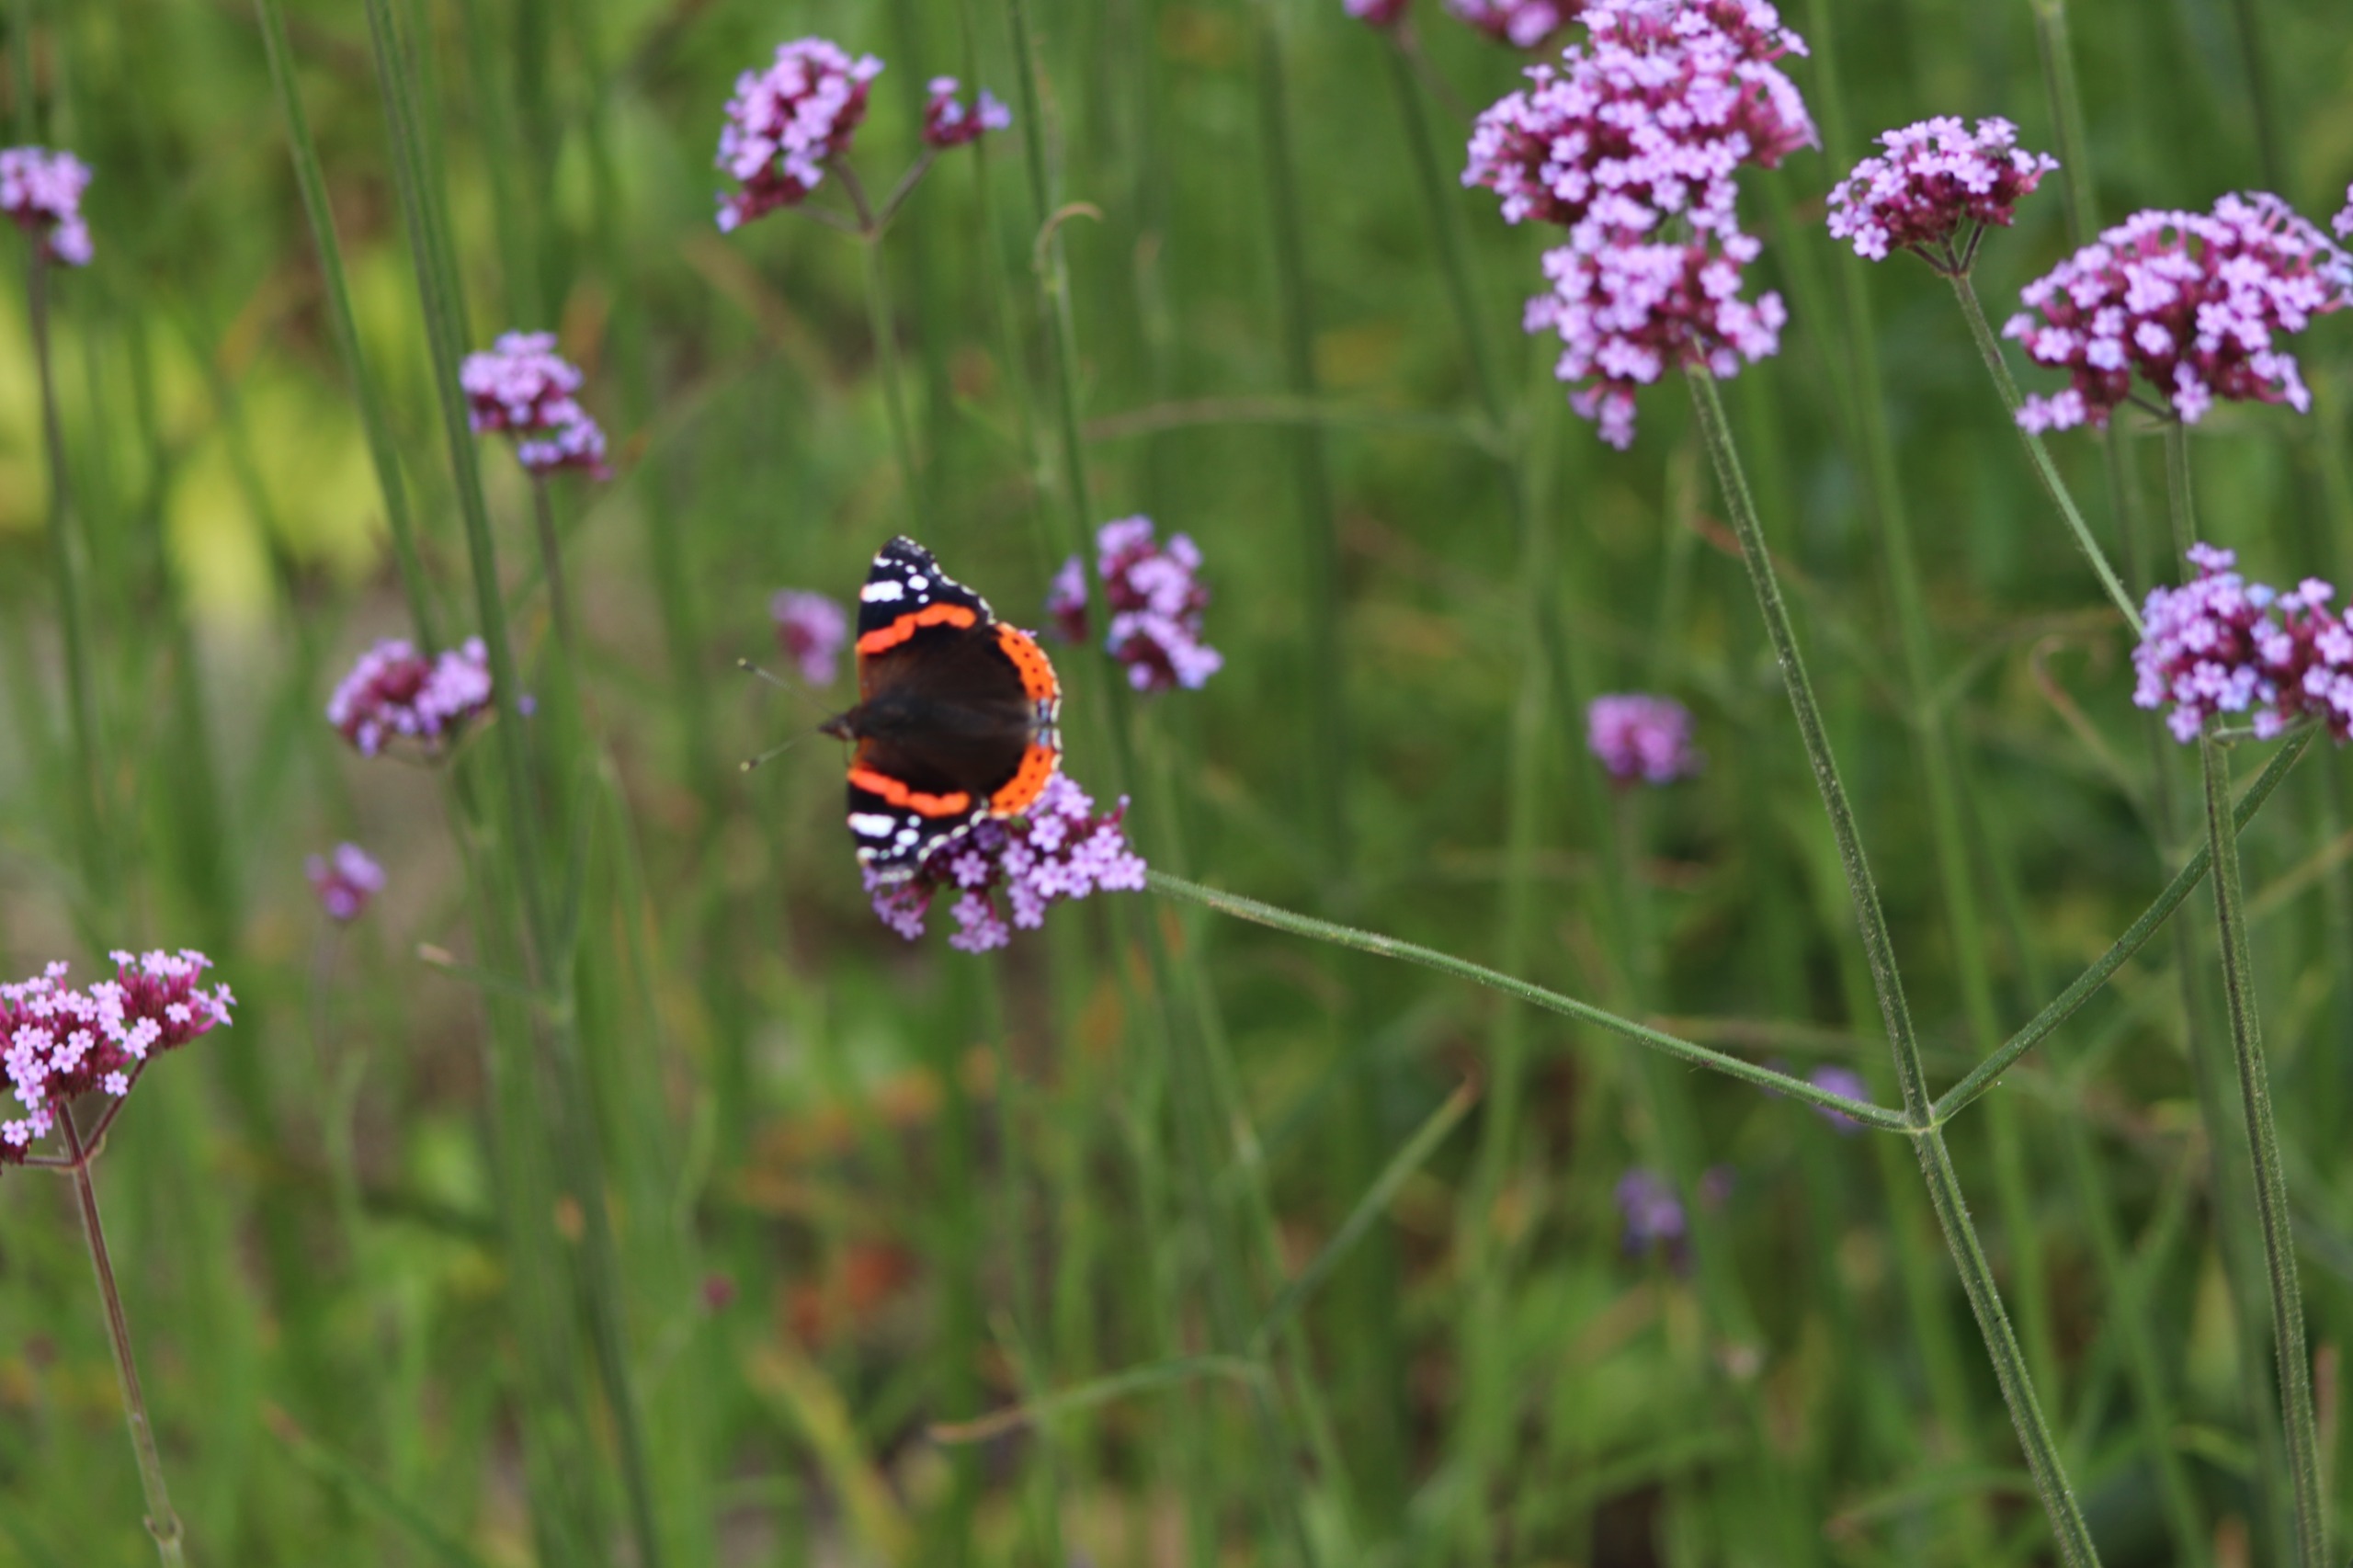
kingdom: Animalia
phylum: Arthropoda
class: Insecta
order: Lepidoptera
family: Nymphalidae
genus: Vanessa
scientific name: Vanessa atalanta
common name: Admiral
